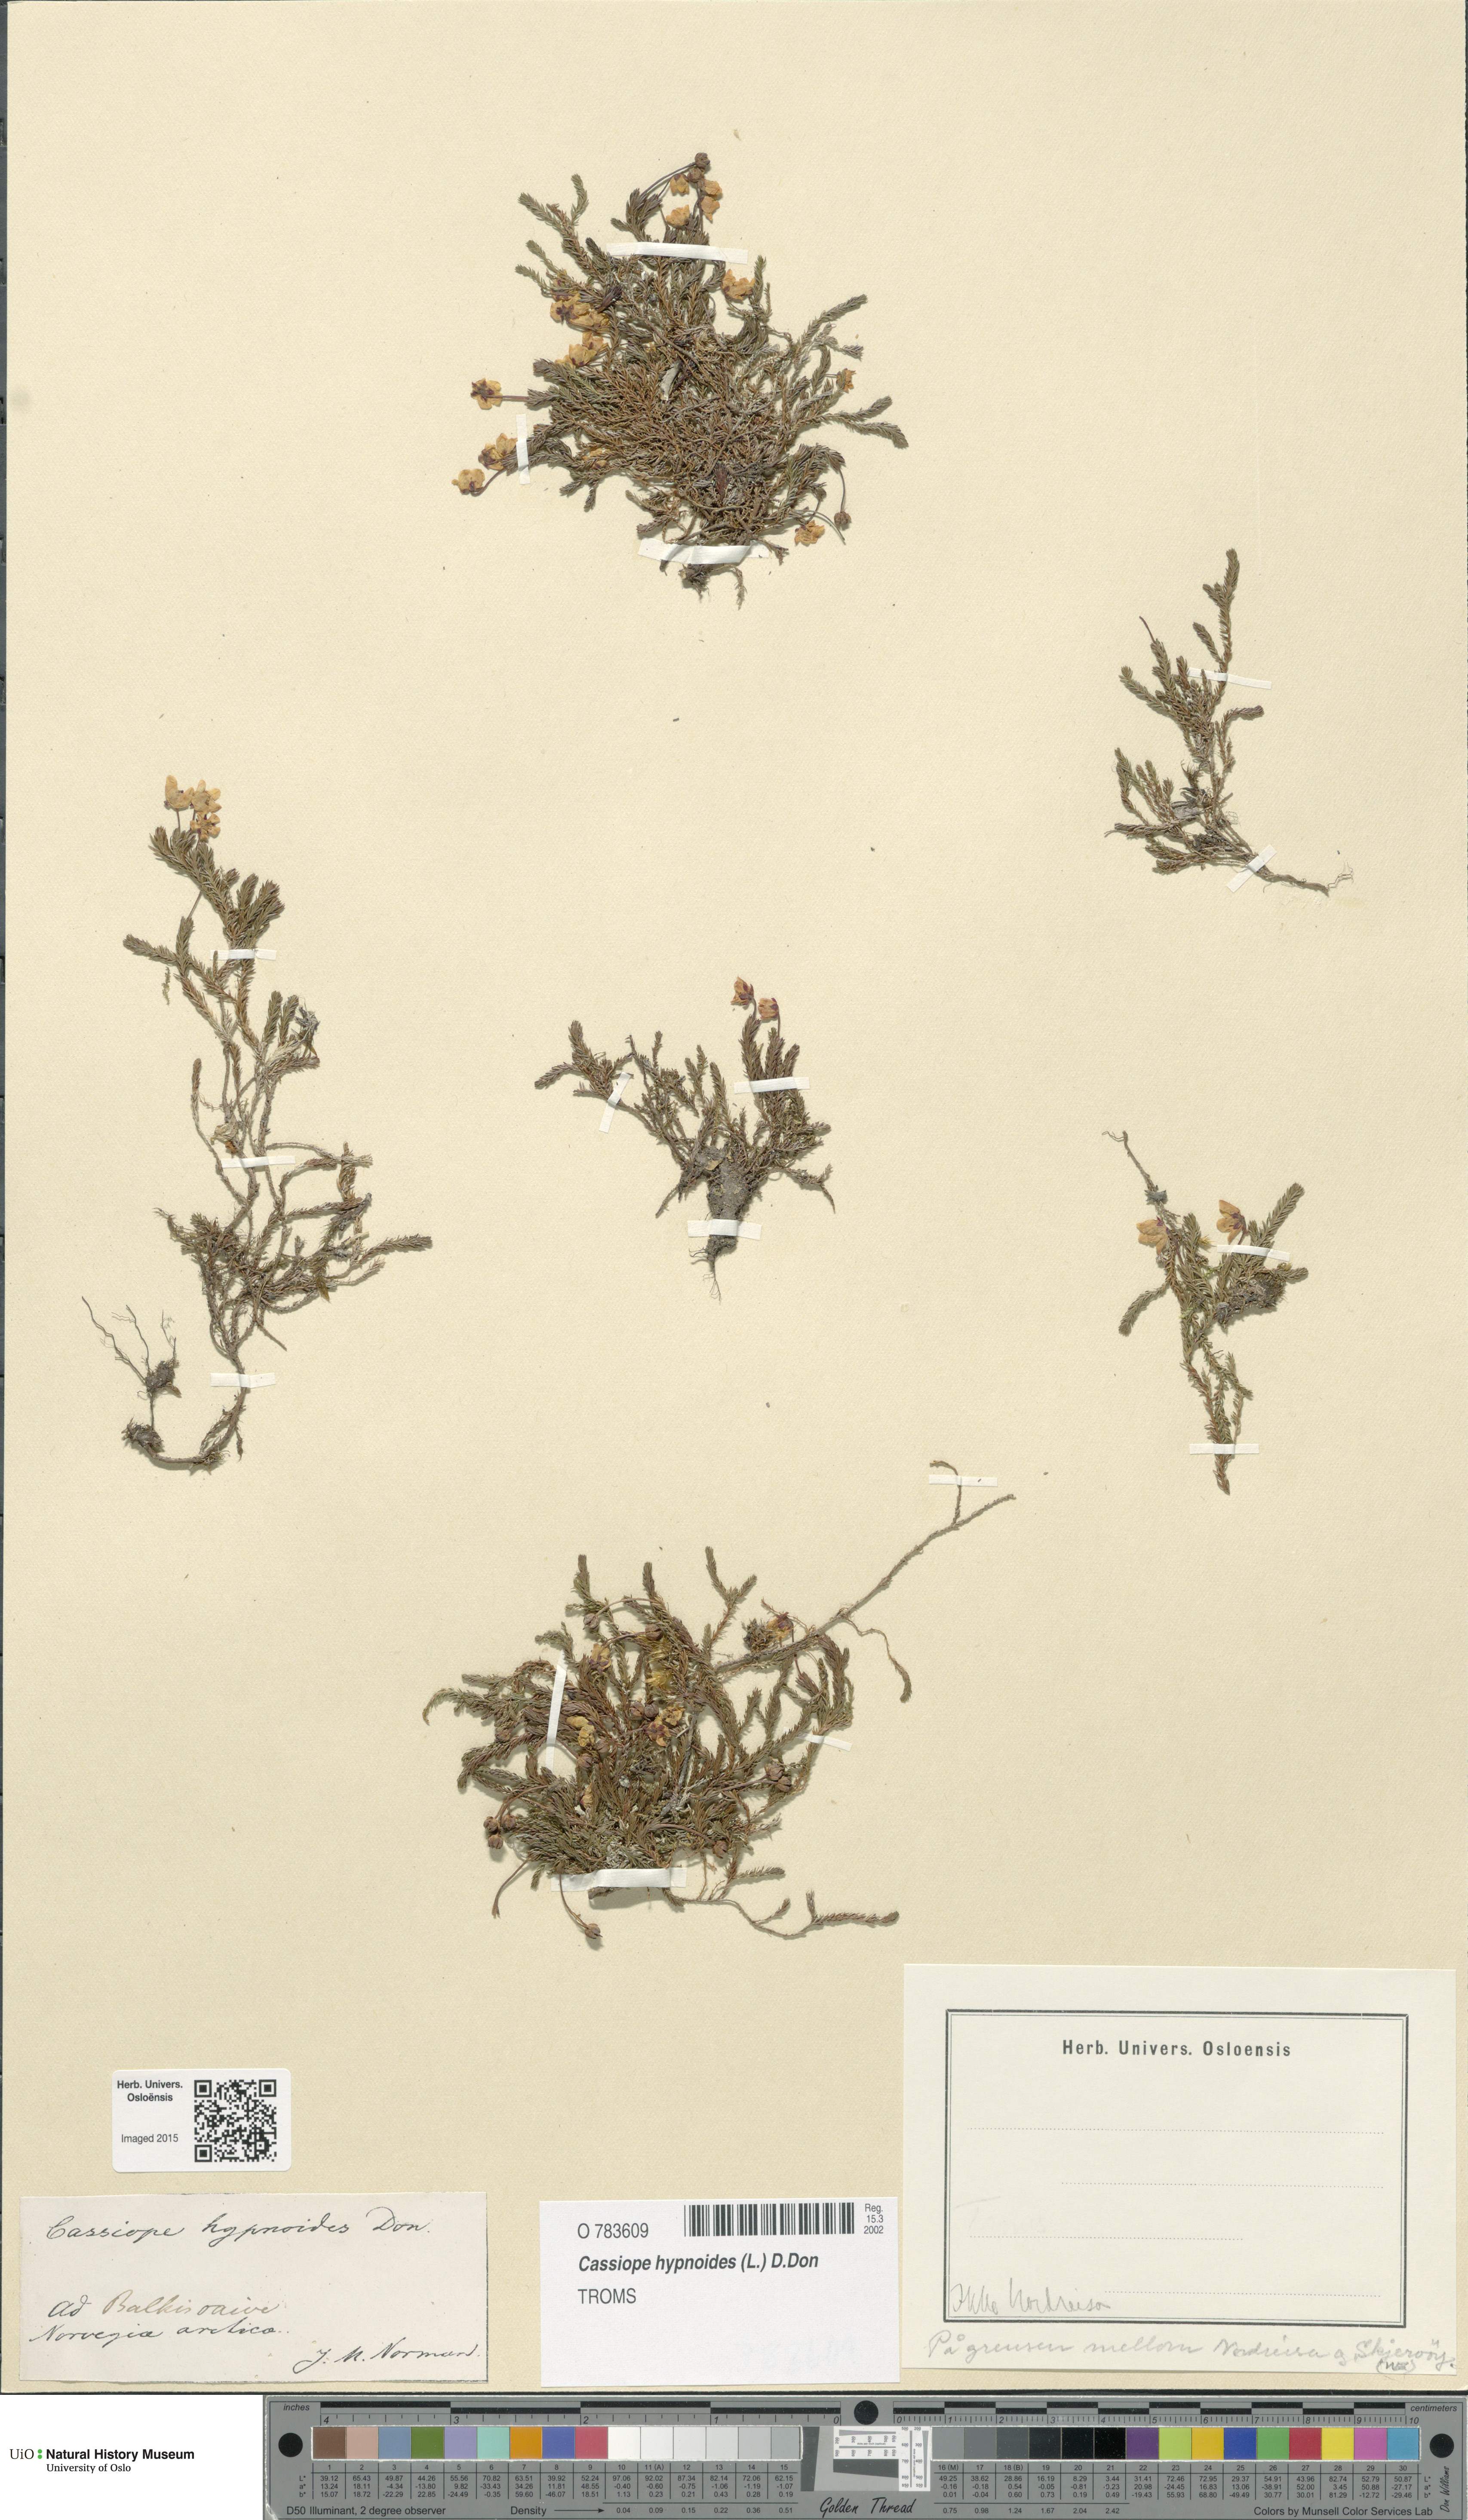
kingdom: Plantae
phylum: Tracheophyta
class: Magnoliopsida
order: Ericales
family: Ericaceae
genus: Harrimanella
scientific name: Harrimanella hypnoides
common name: Moss bell heather
